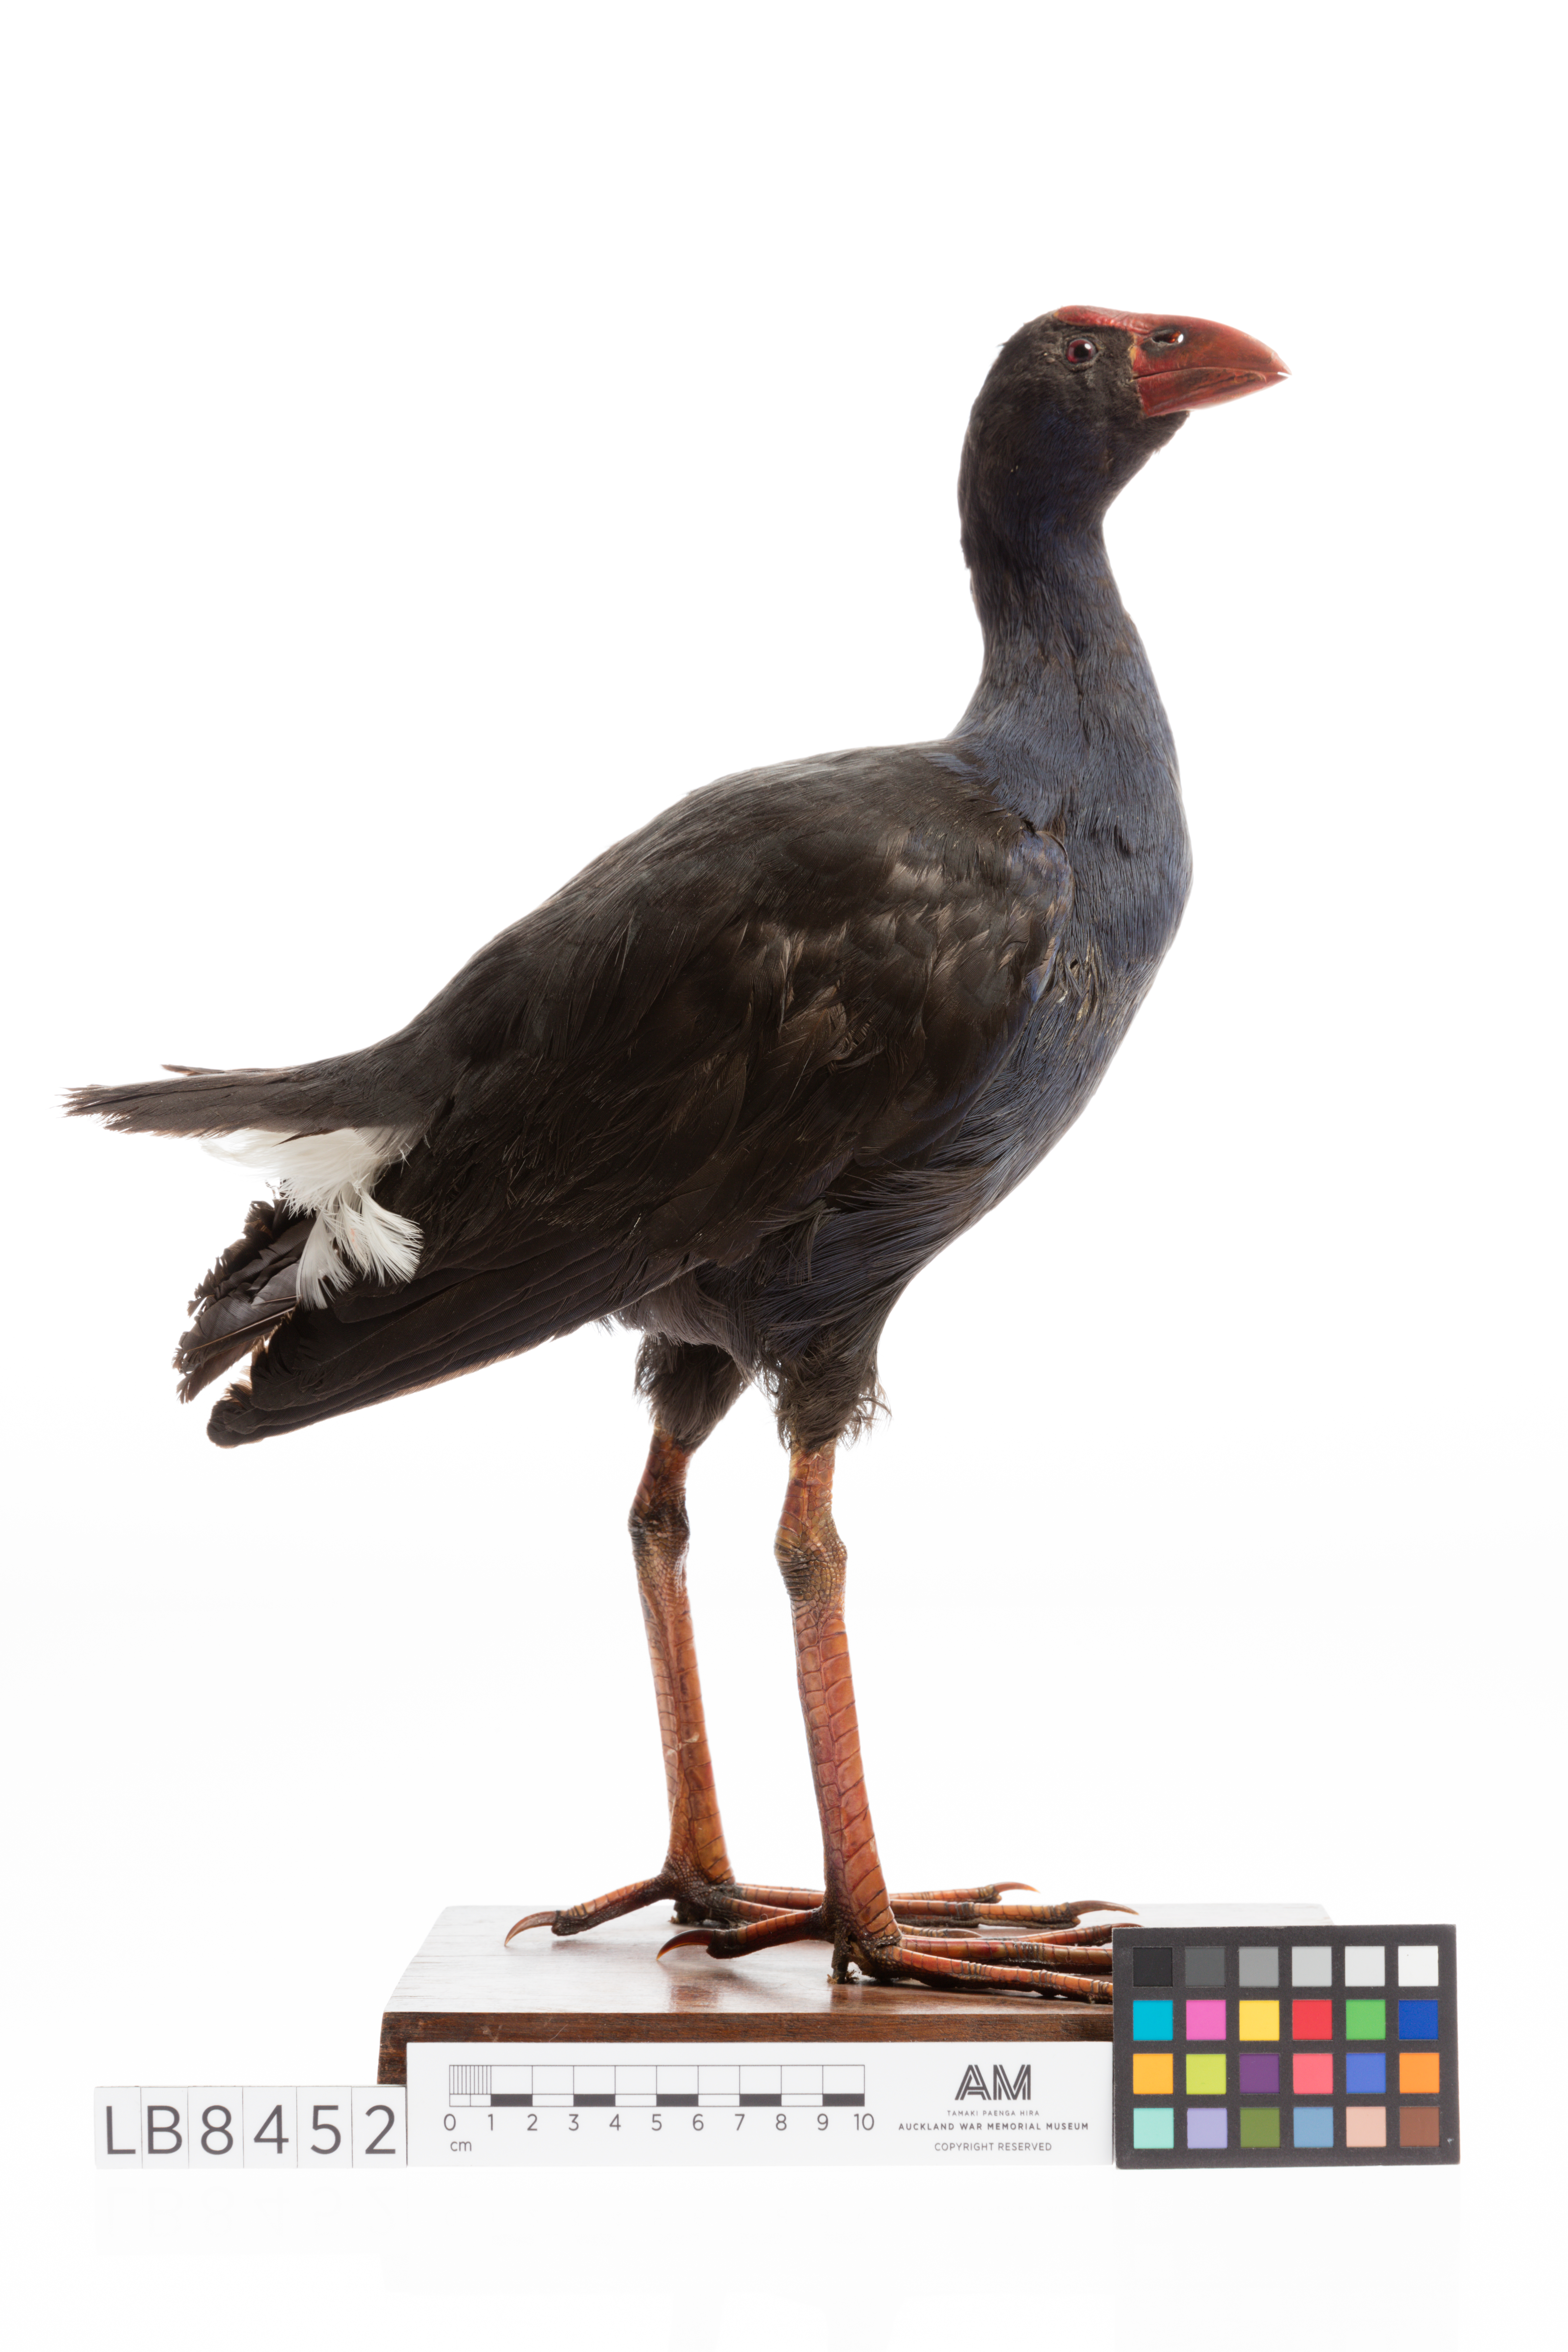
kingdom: Animalia
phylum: Chordata
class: Aves
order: Gruiformes
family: Rallidae
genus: Porphyrio
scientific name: Porphyrio melanotus
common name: Australasian swamphen
